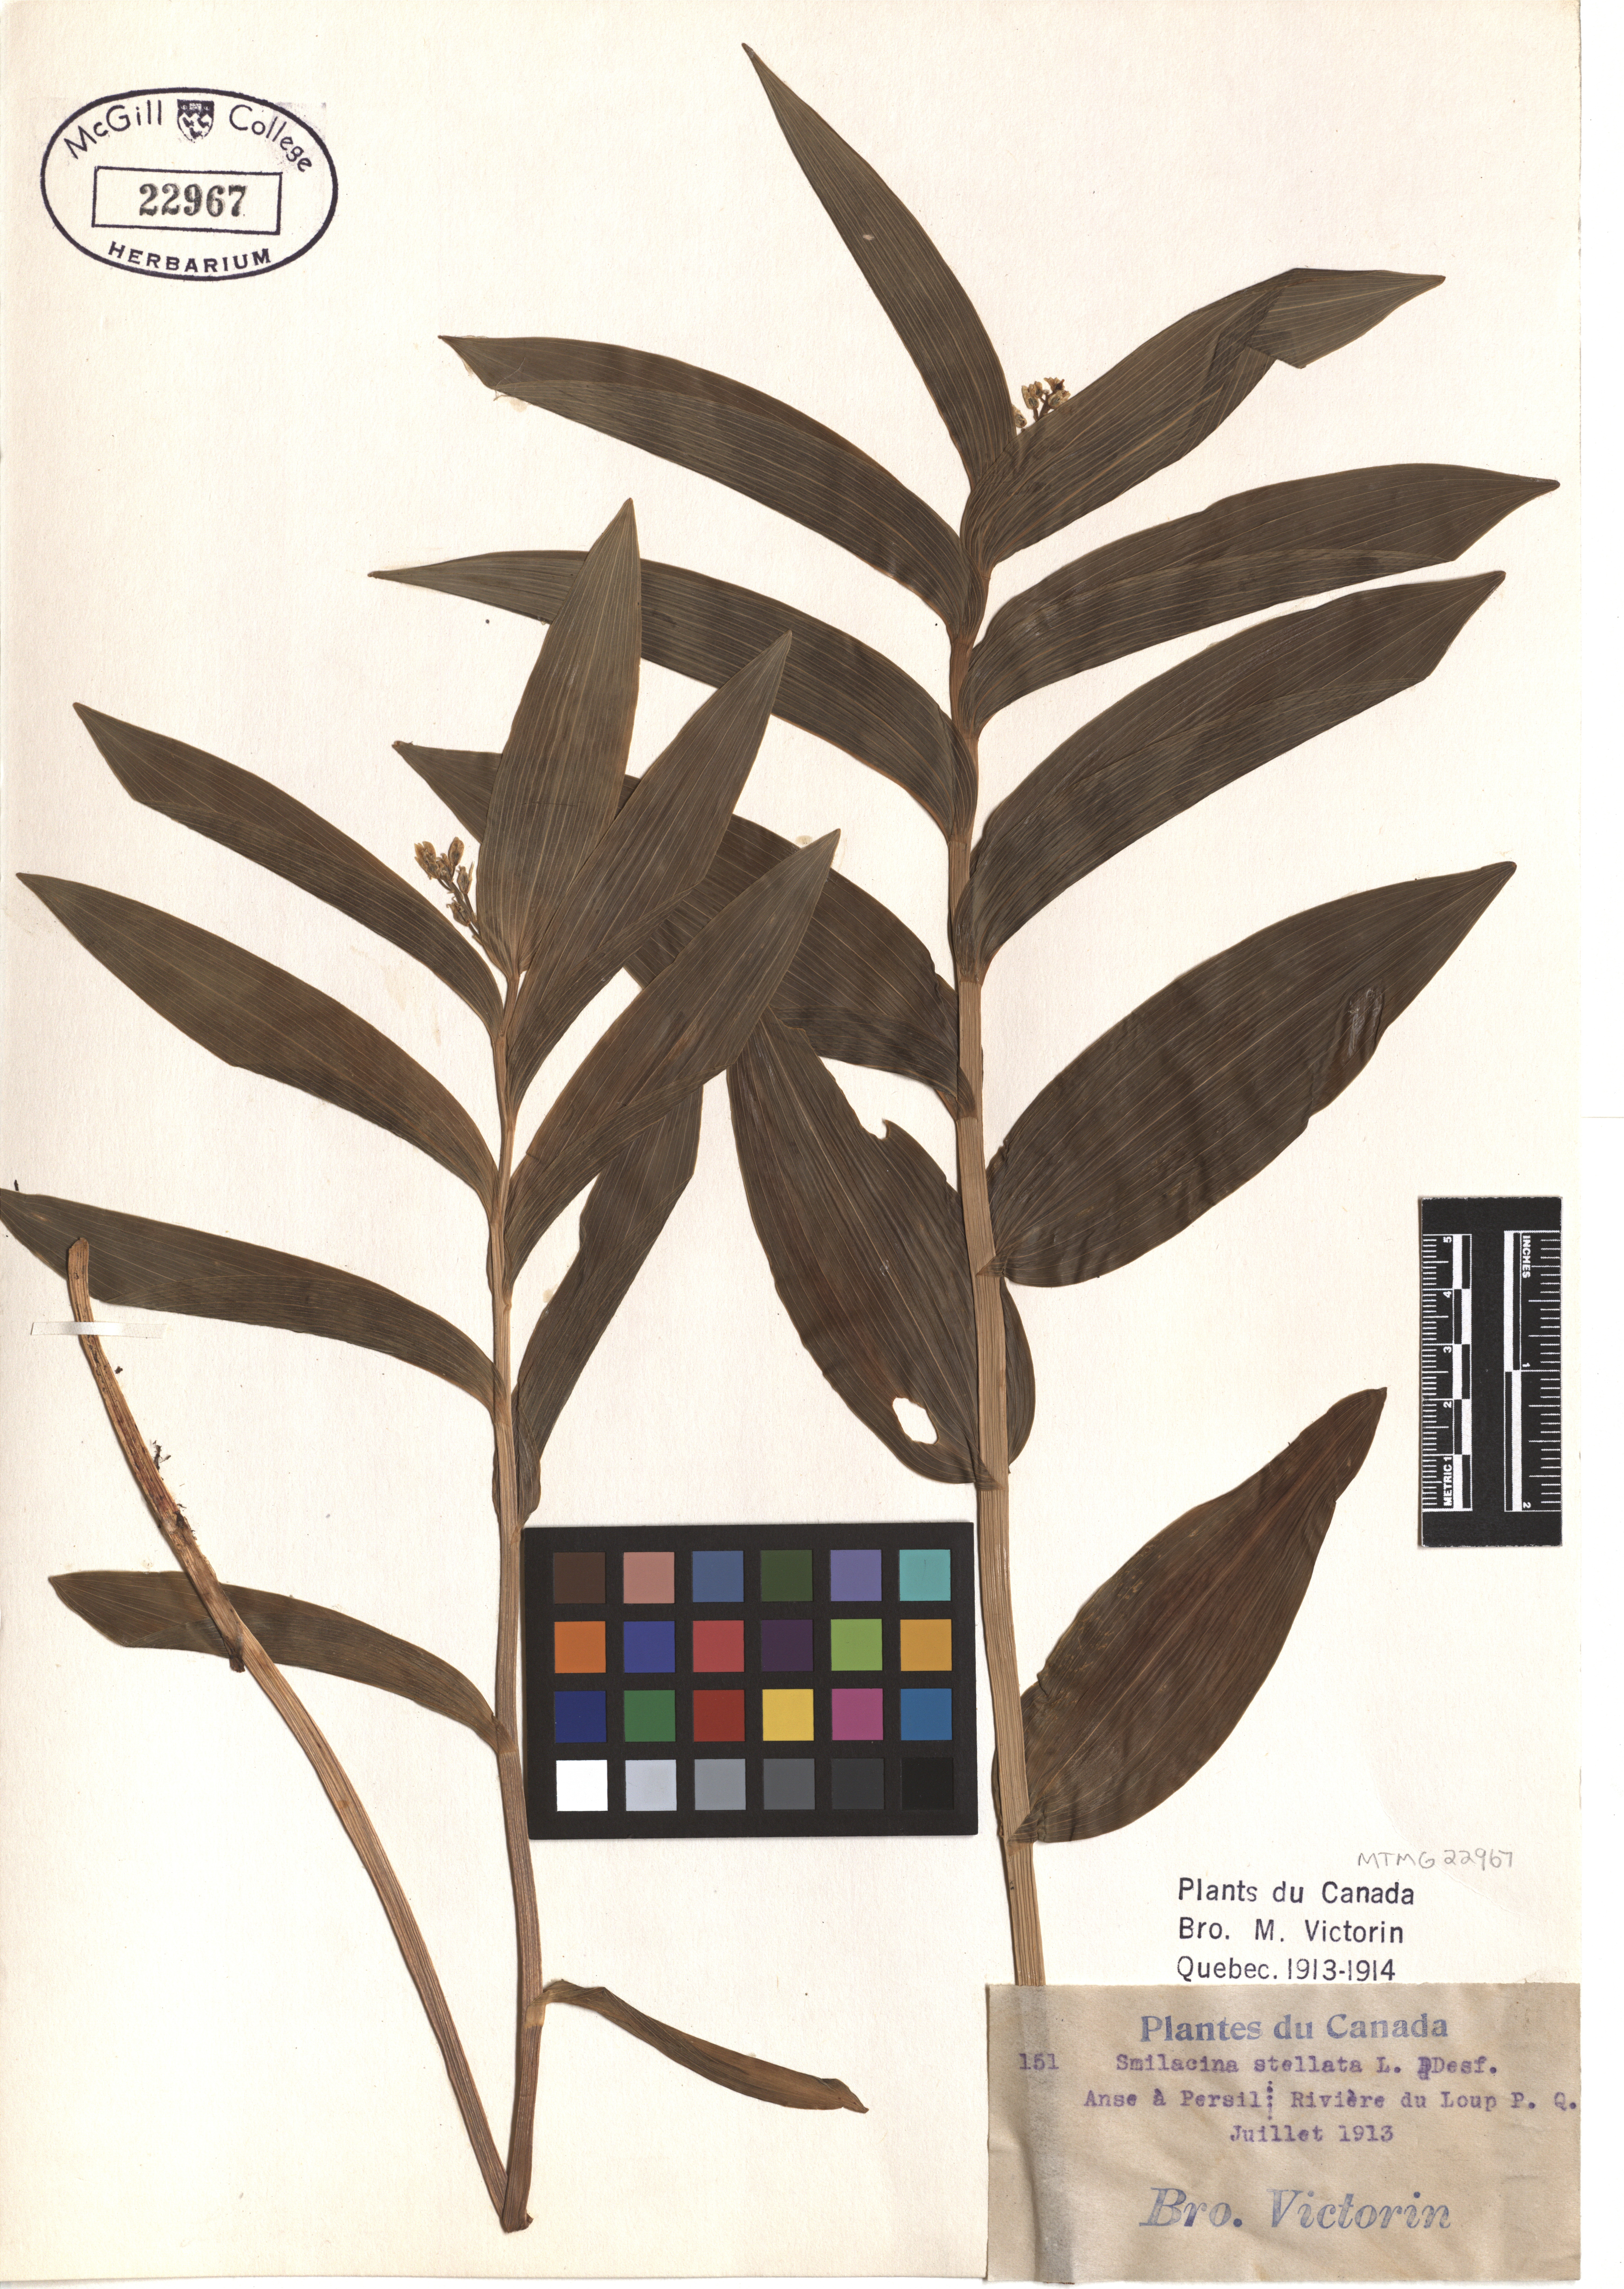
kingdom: Plantae
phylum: Tracheophyta
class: Liliopsida
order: Asparagales
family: Asparagaceae
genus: Maianthemum
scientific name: Maianthemum stellatum
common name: Little false solomon's seal
